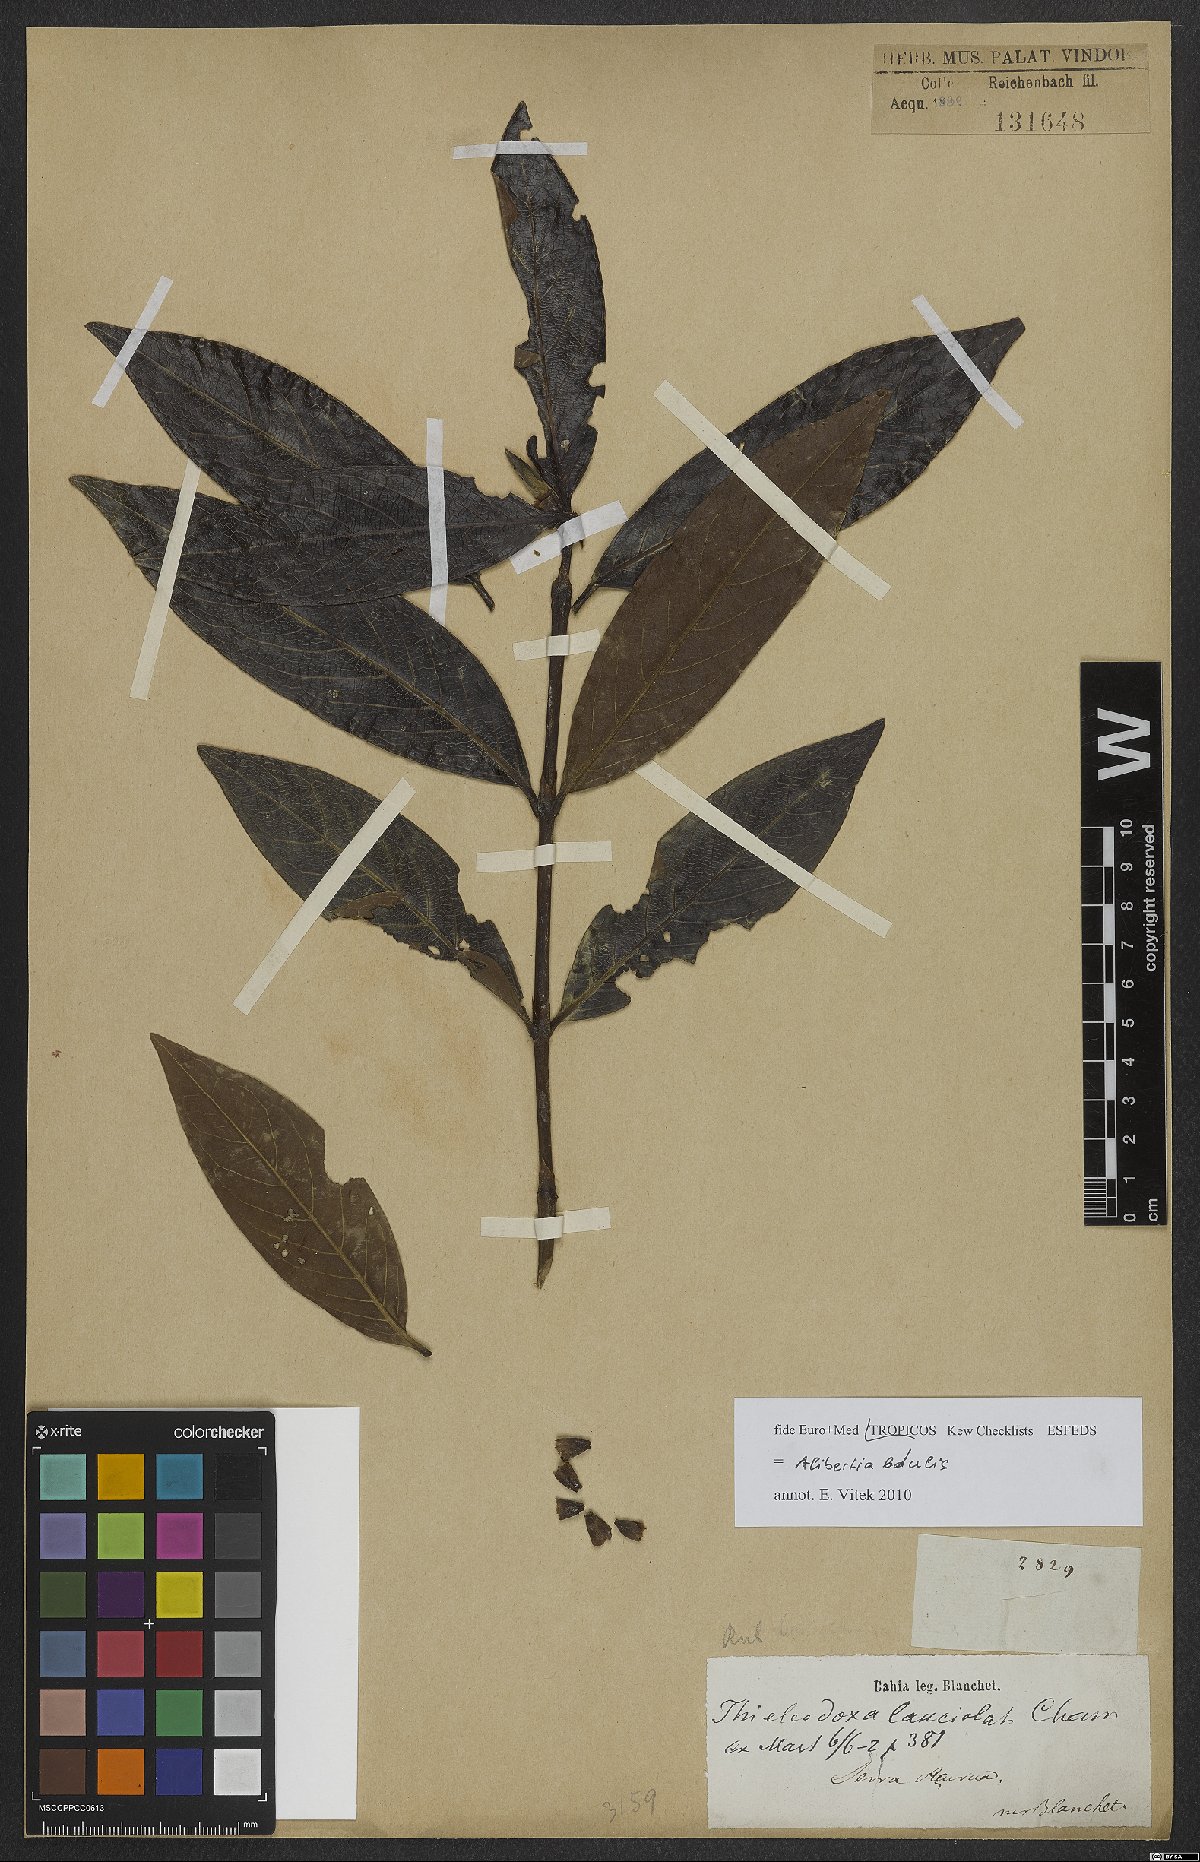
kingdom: Plantae
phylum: Tracheophyta
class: Magnoliopsida
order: Gentianales
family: Rubiaceae
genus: Alibertia
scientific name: Alibertia edulis
